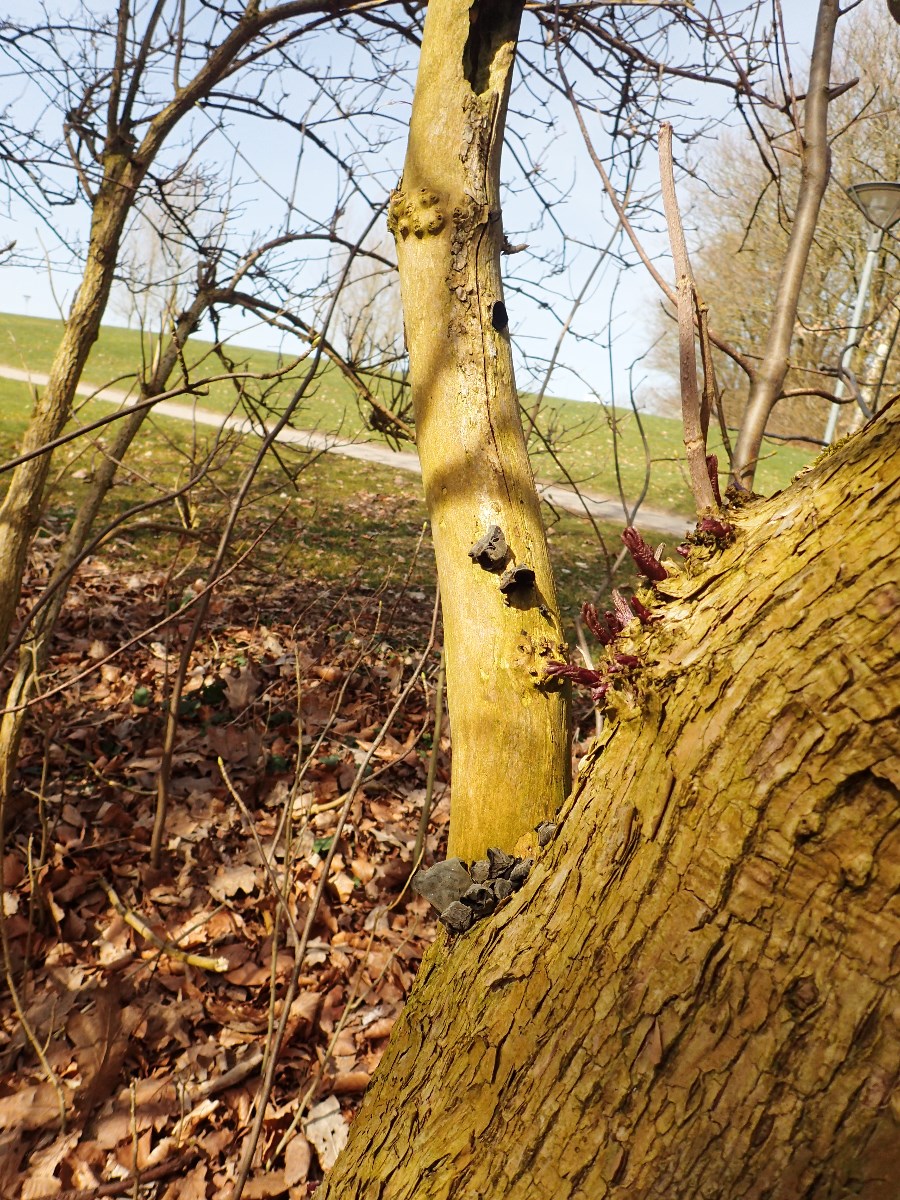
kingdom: Fungi
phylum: Basidiomycota
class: Agaricomycetes
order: Auriculariales
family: Auriculariaceae
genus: Auricularia
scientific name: Auricularia auricula-judae
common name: almindelig judasøre
